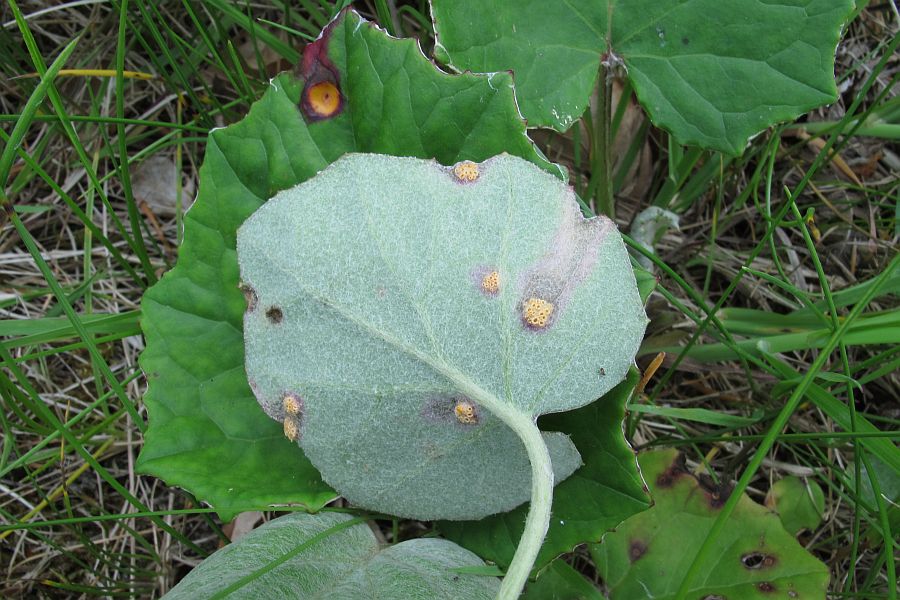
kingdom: Fungi
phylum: Basidiomycota
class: Pucciniomycetes
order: Pucciniales
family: Pucciniaceae
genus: Puccinia
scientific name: Puccinia poarum
